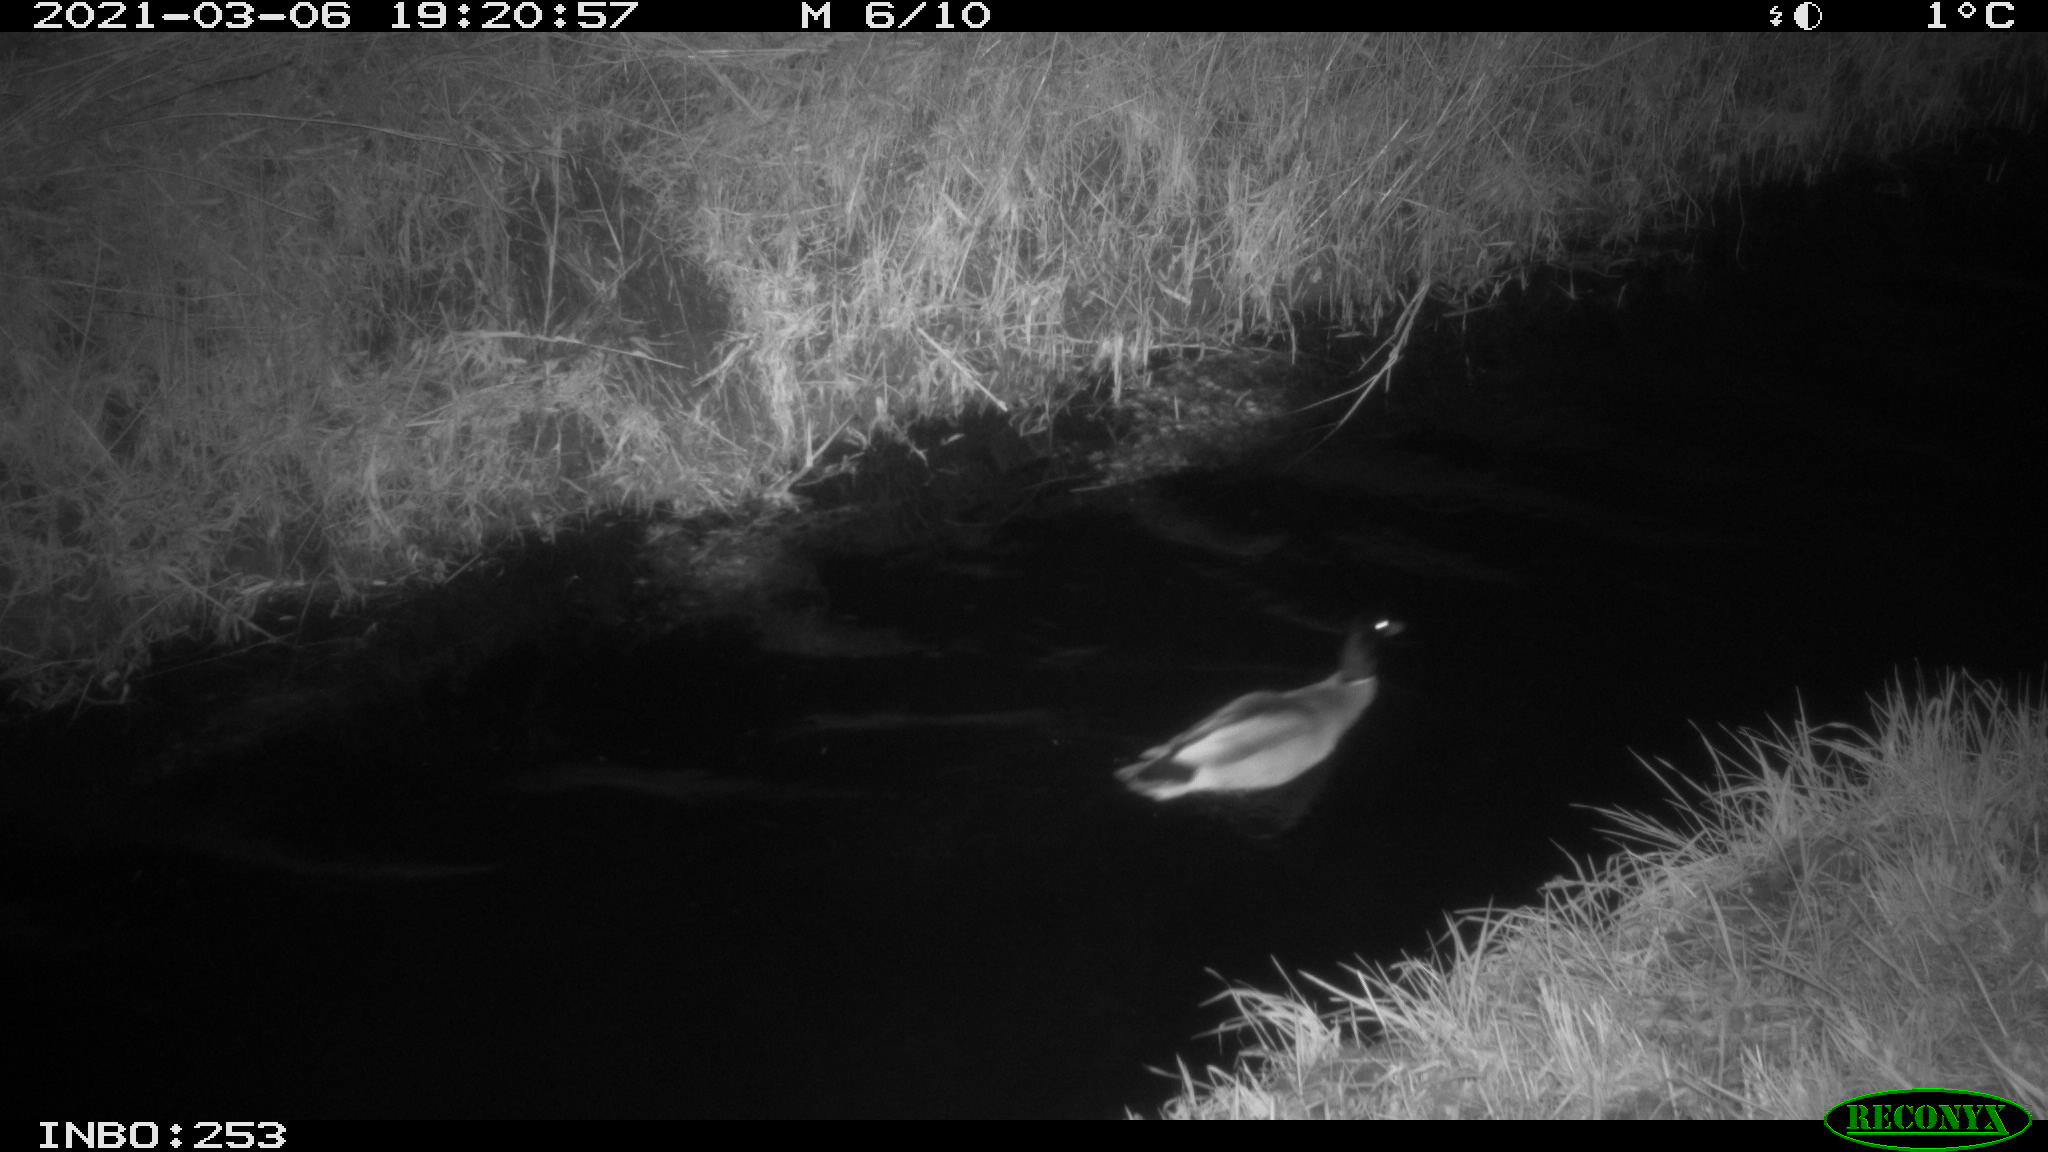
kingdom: Animalia
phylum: Chordata
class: Aves
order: Anseriformes
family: Anatidae
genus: Anas
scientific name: Anas platyrhynchos
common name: Mallard
